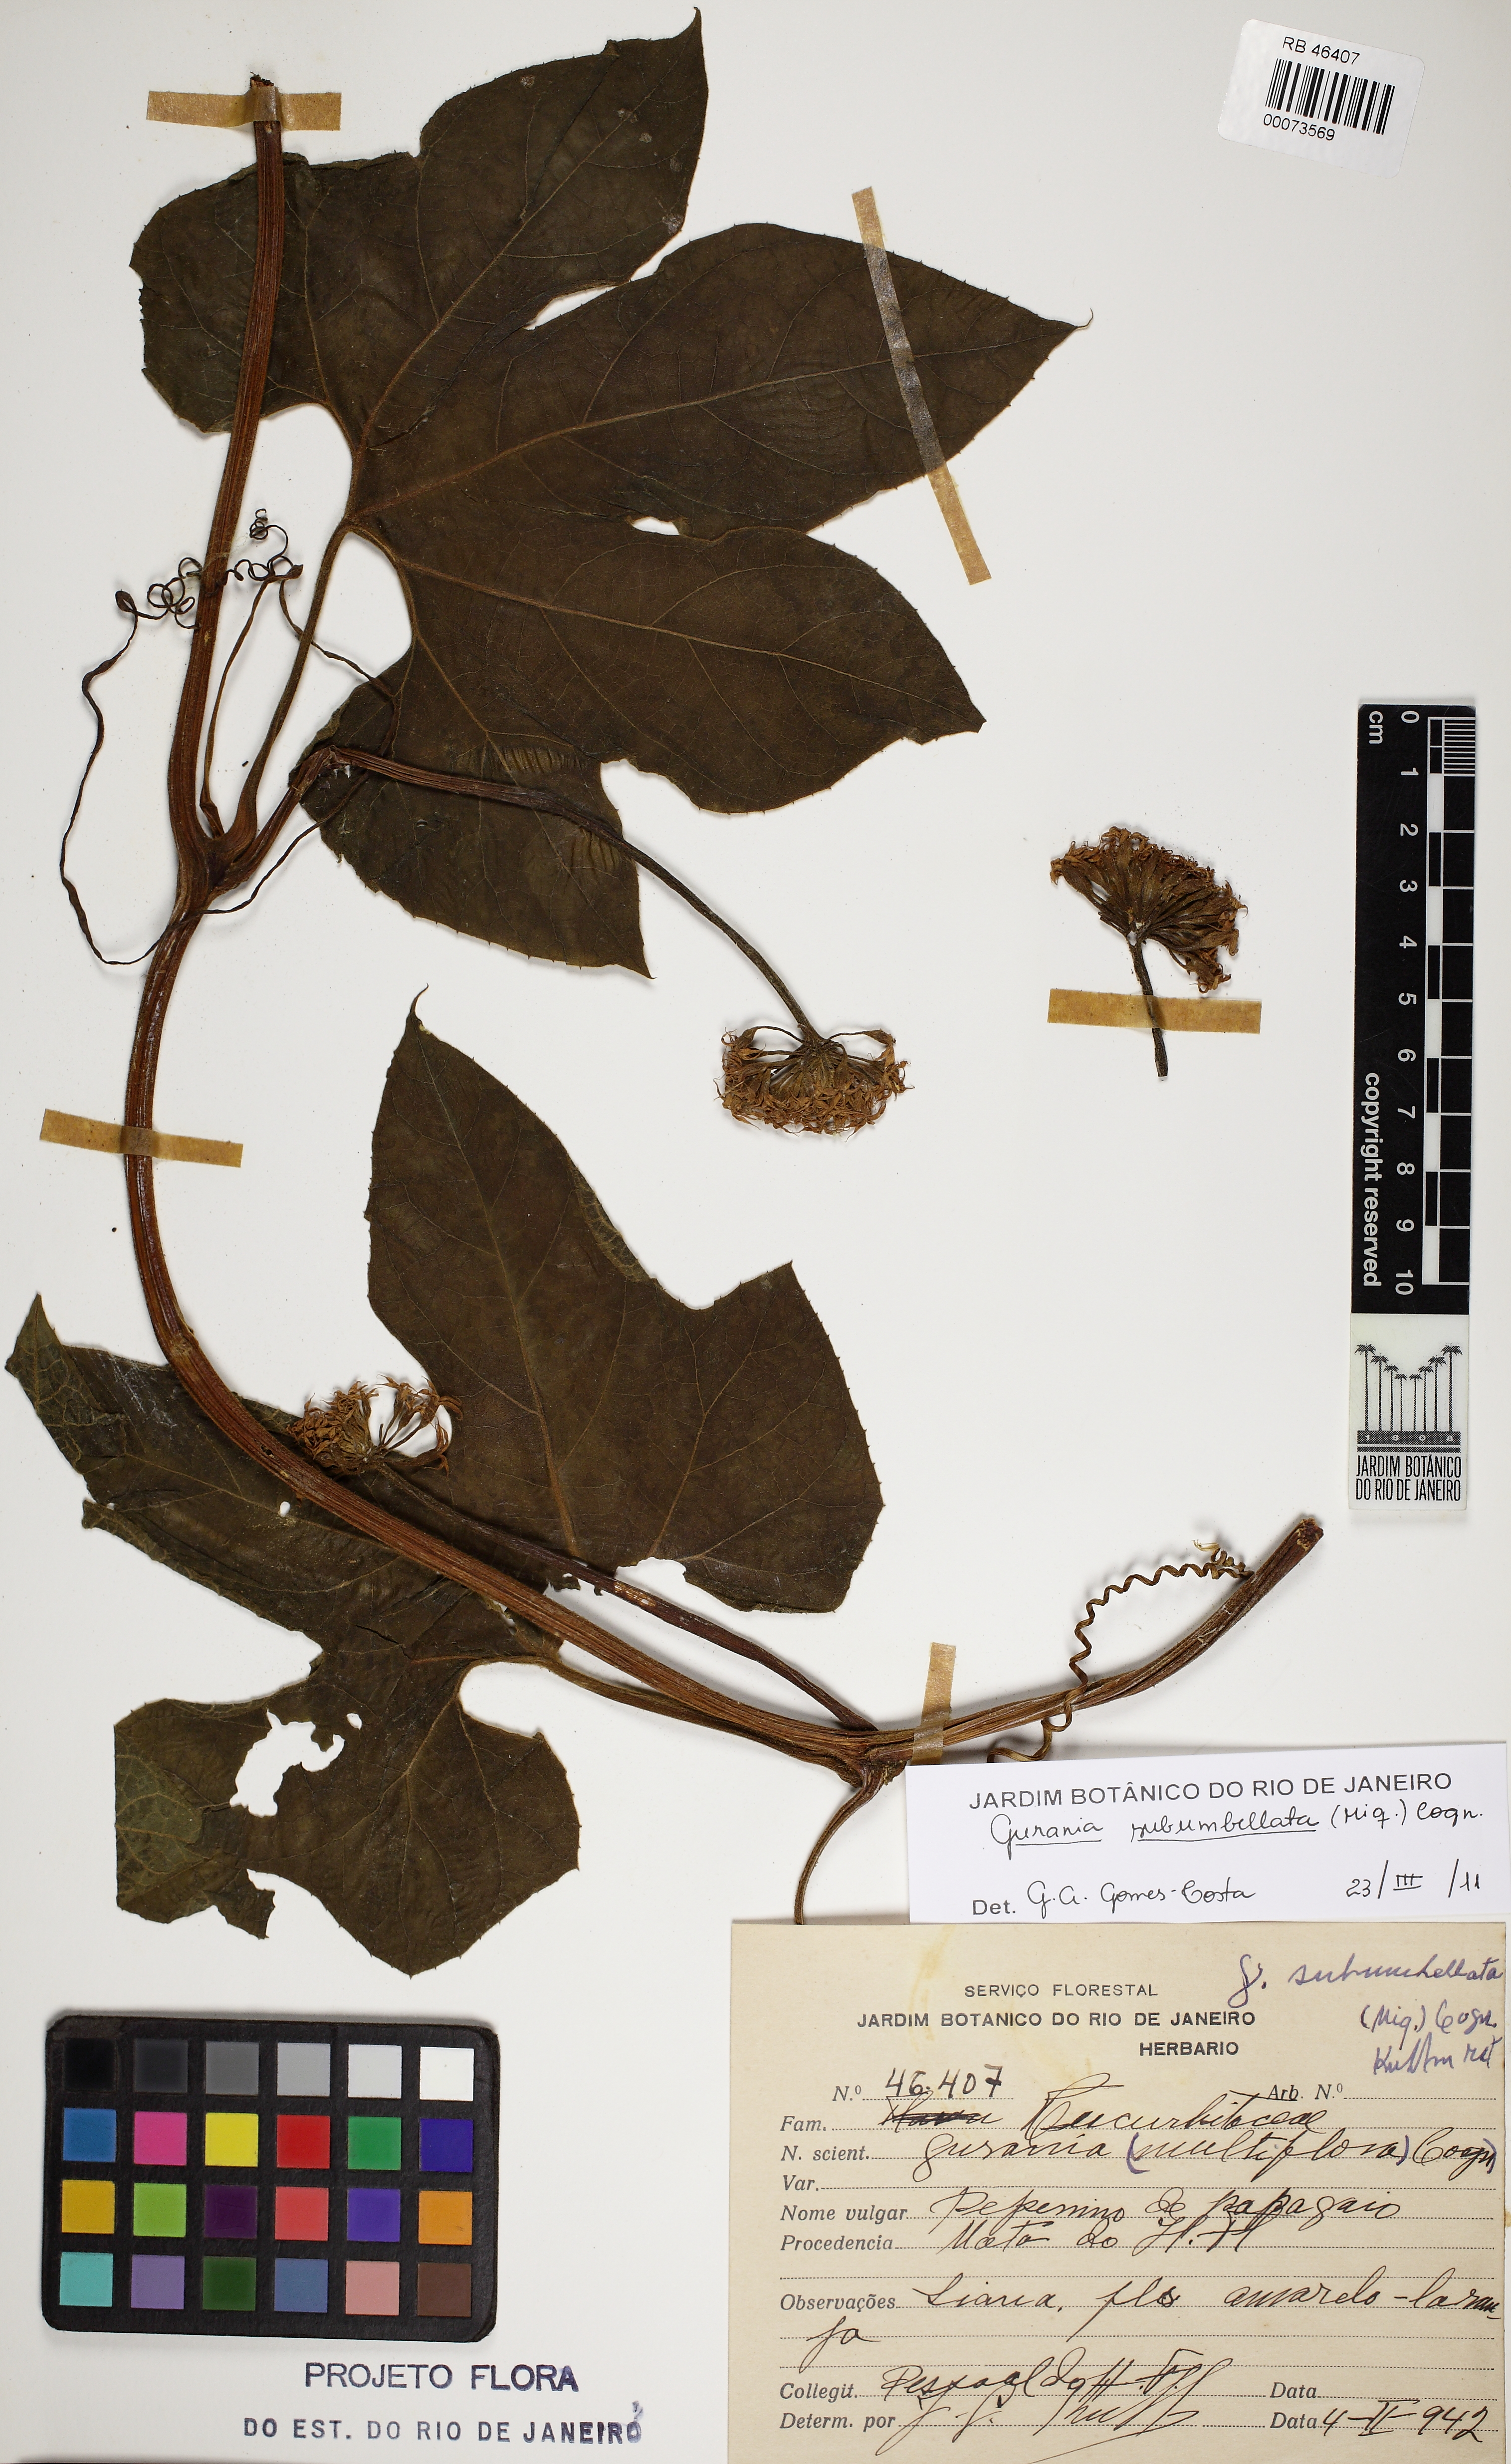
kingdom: Plantae
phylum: Tracheophyta
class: Magnoliopsida
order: Cucurbitales
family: Cucurbitaceae
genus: Gurania
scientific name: Gurania subumbellata
